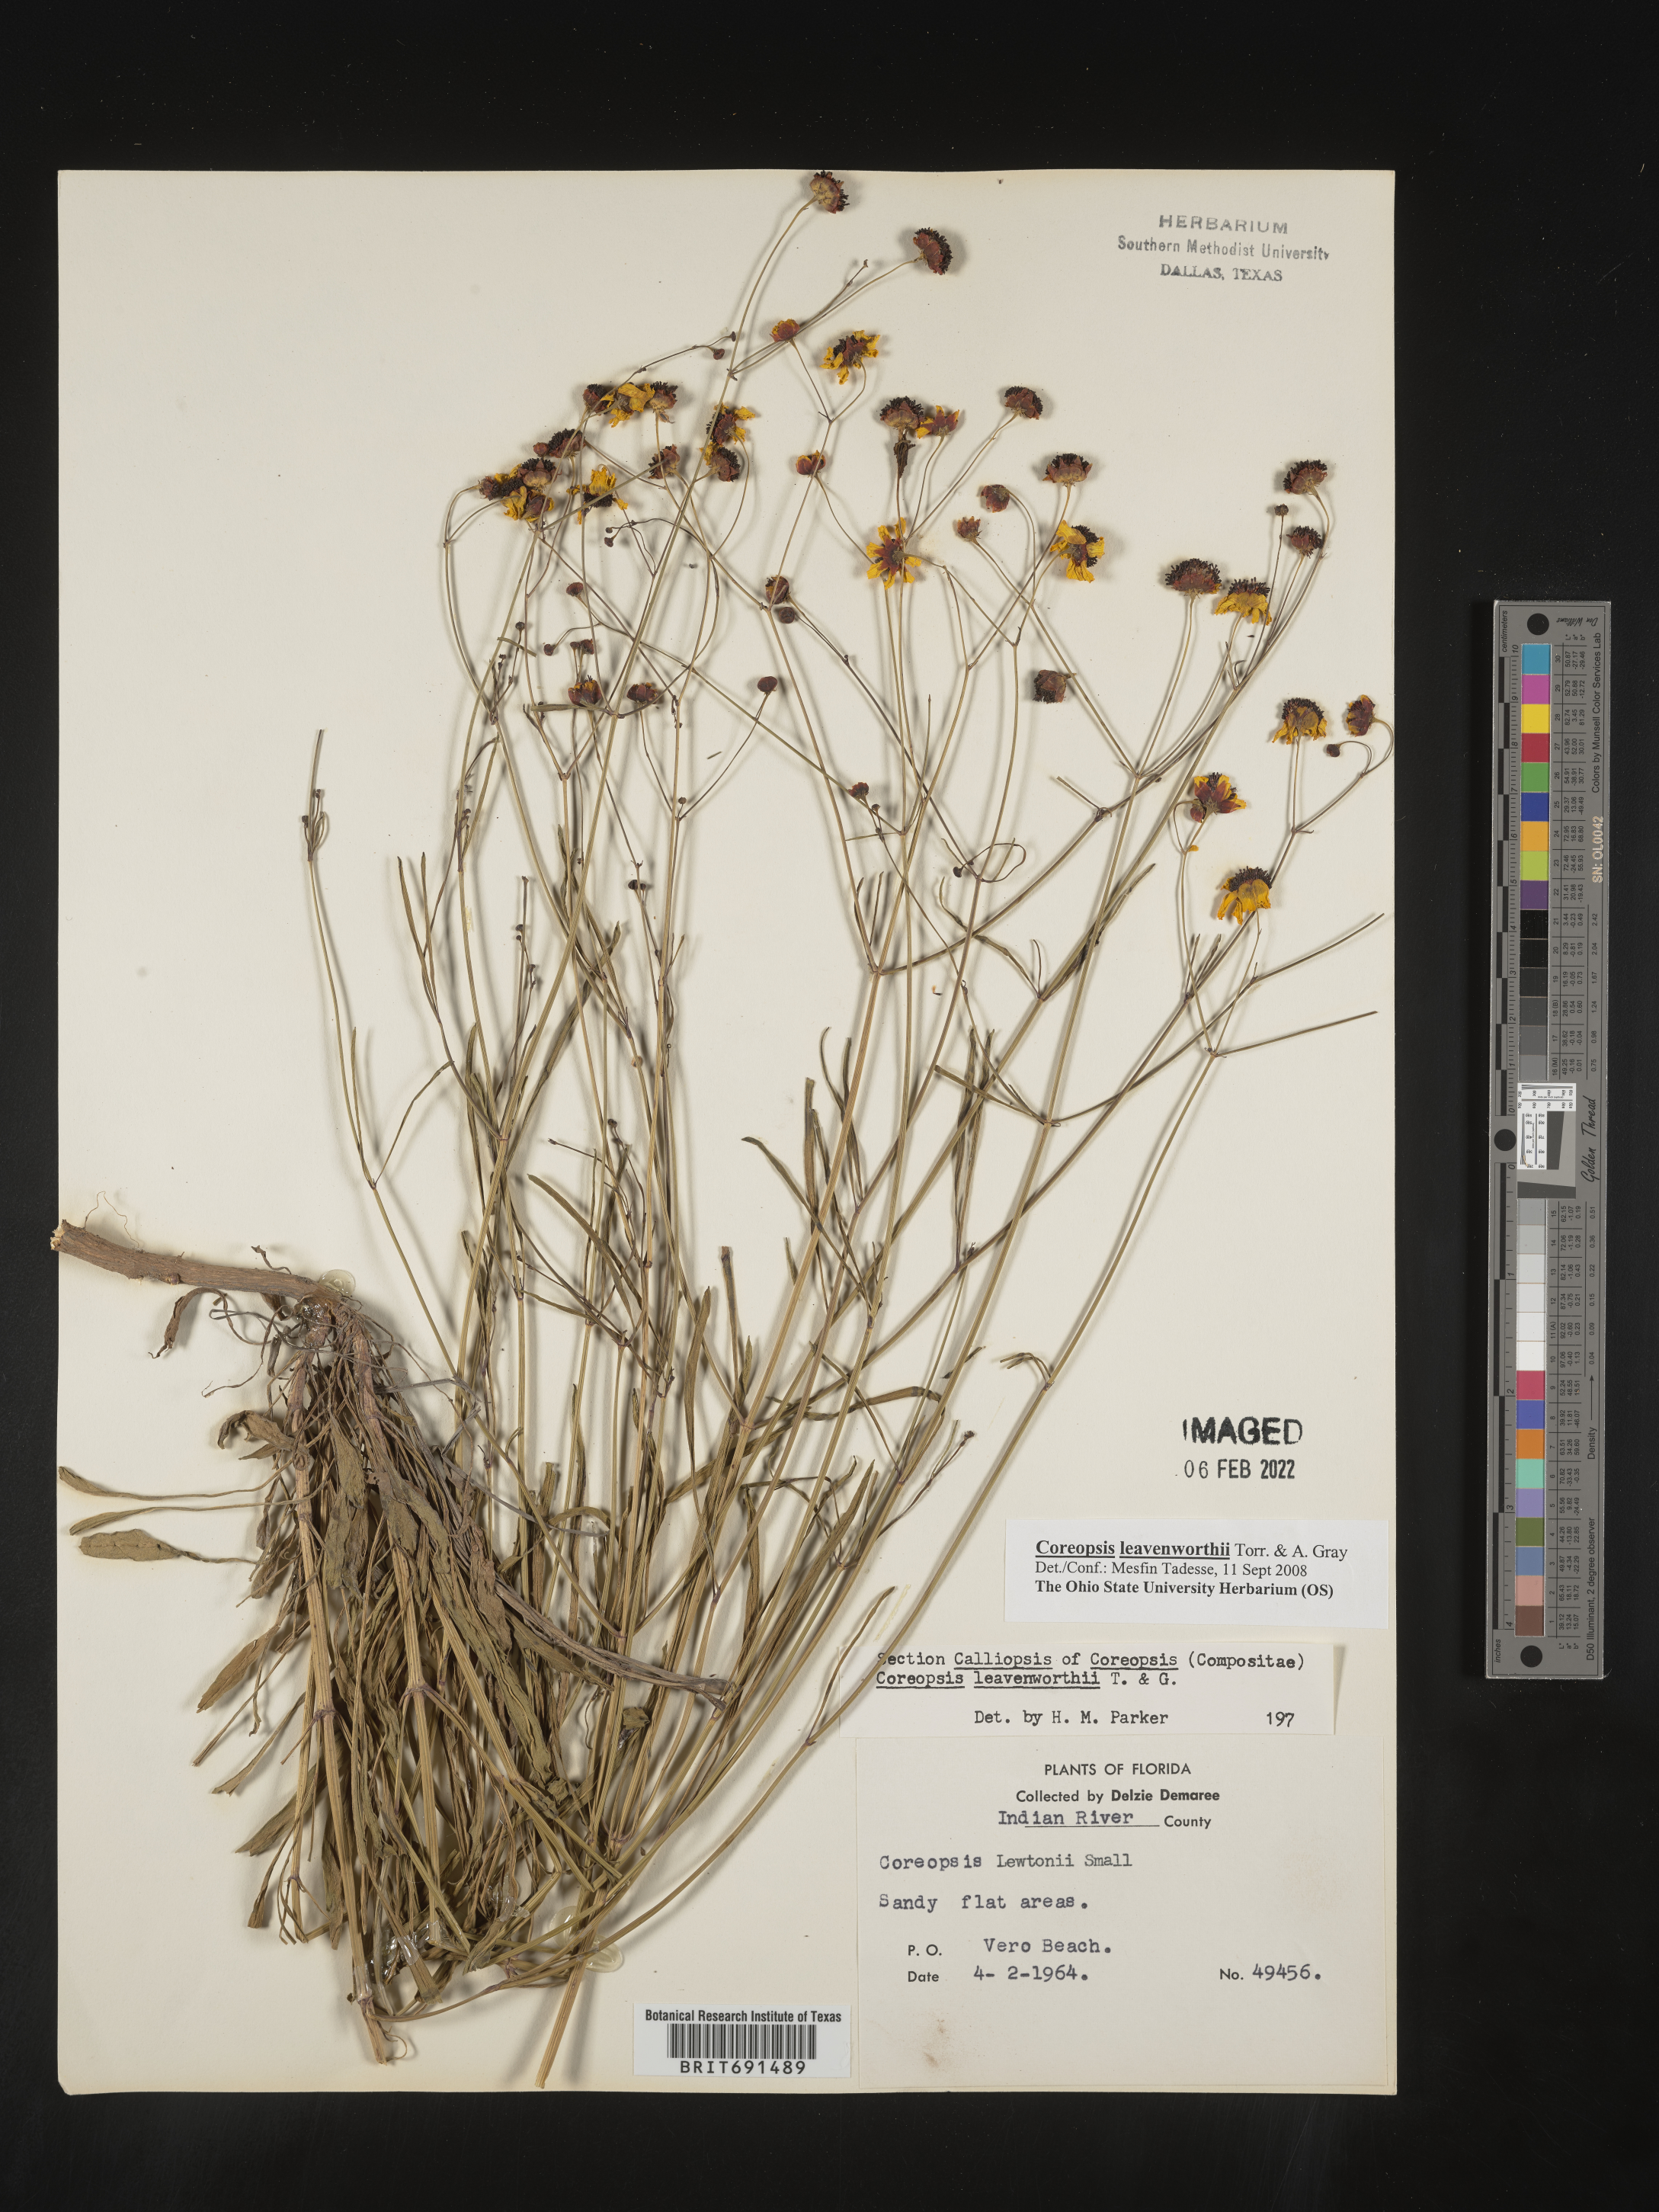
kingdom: Plantae
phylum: Tracheophyta
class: Magnoliopsida
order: Asterales
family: Asteraceae
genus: Coreopsis
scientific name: Coreopsis leavenworthii
